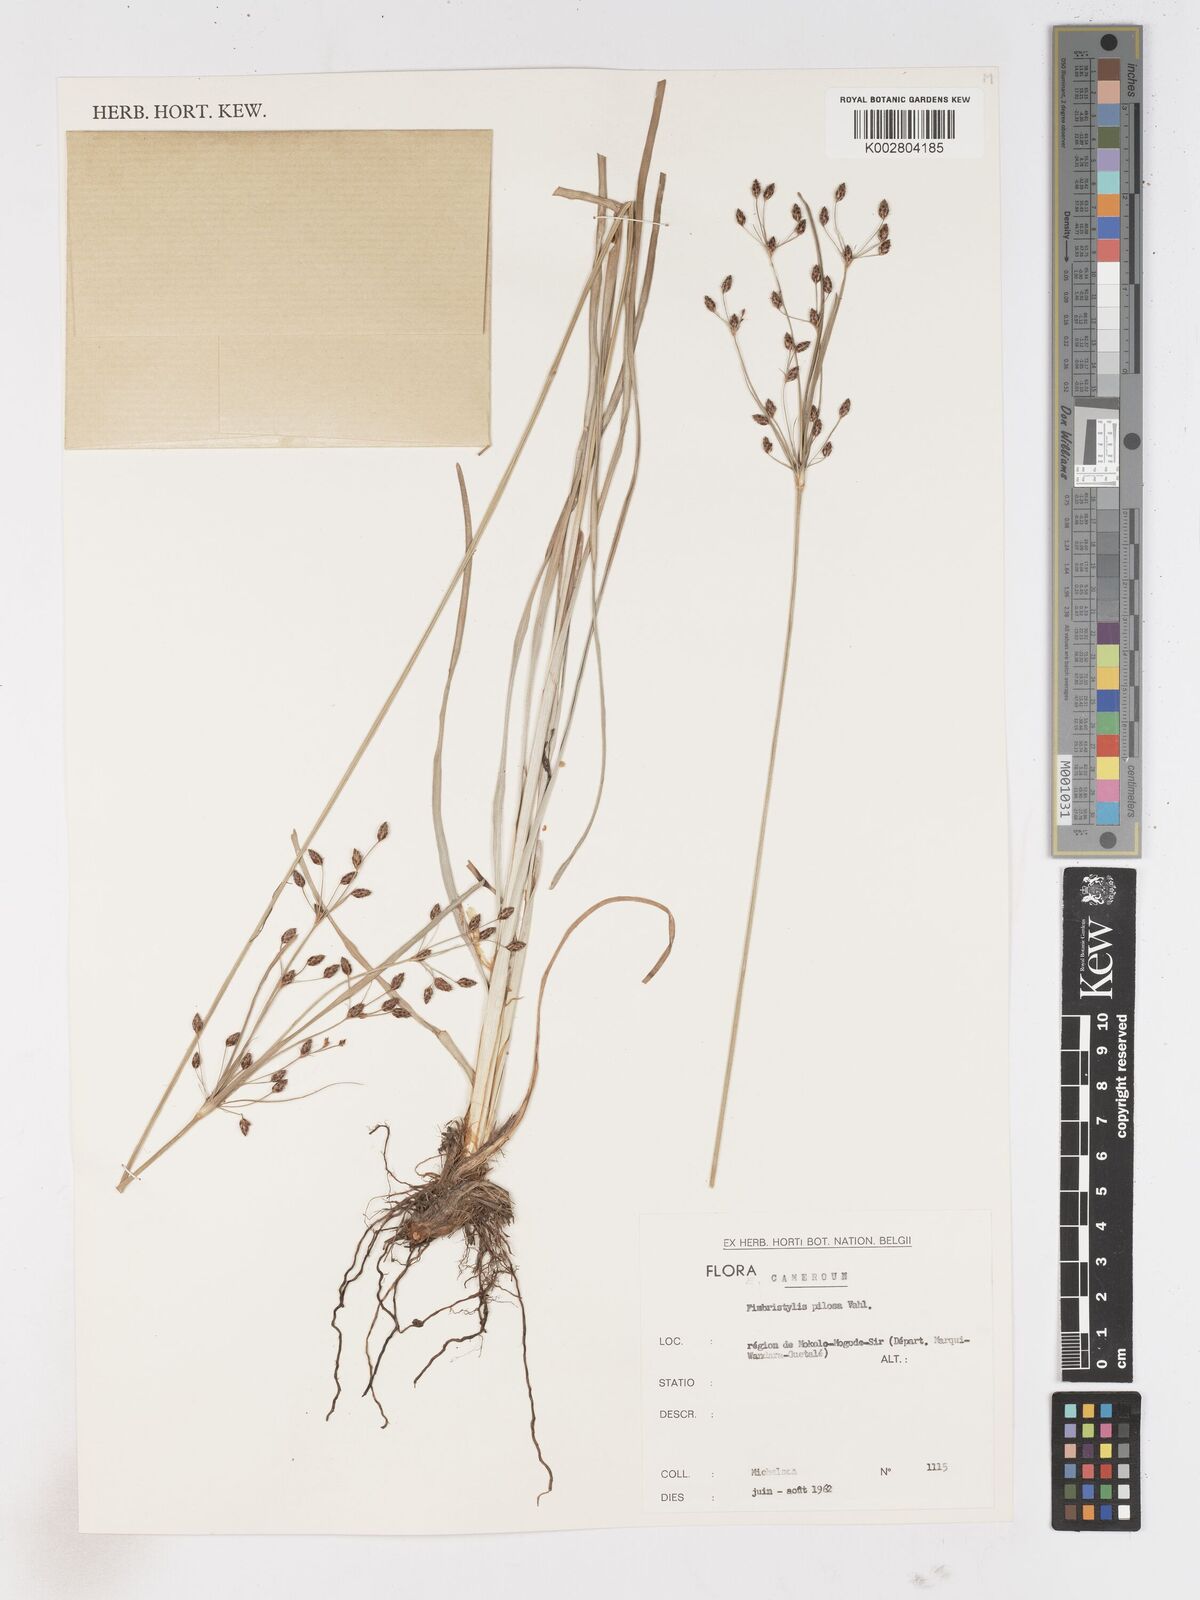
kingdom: Plantae
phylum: Tracheophyta
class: Liliopsida
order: Poales
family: Cyperaceae
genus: Fimbristylis
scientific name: Fimbristylis pilosa
